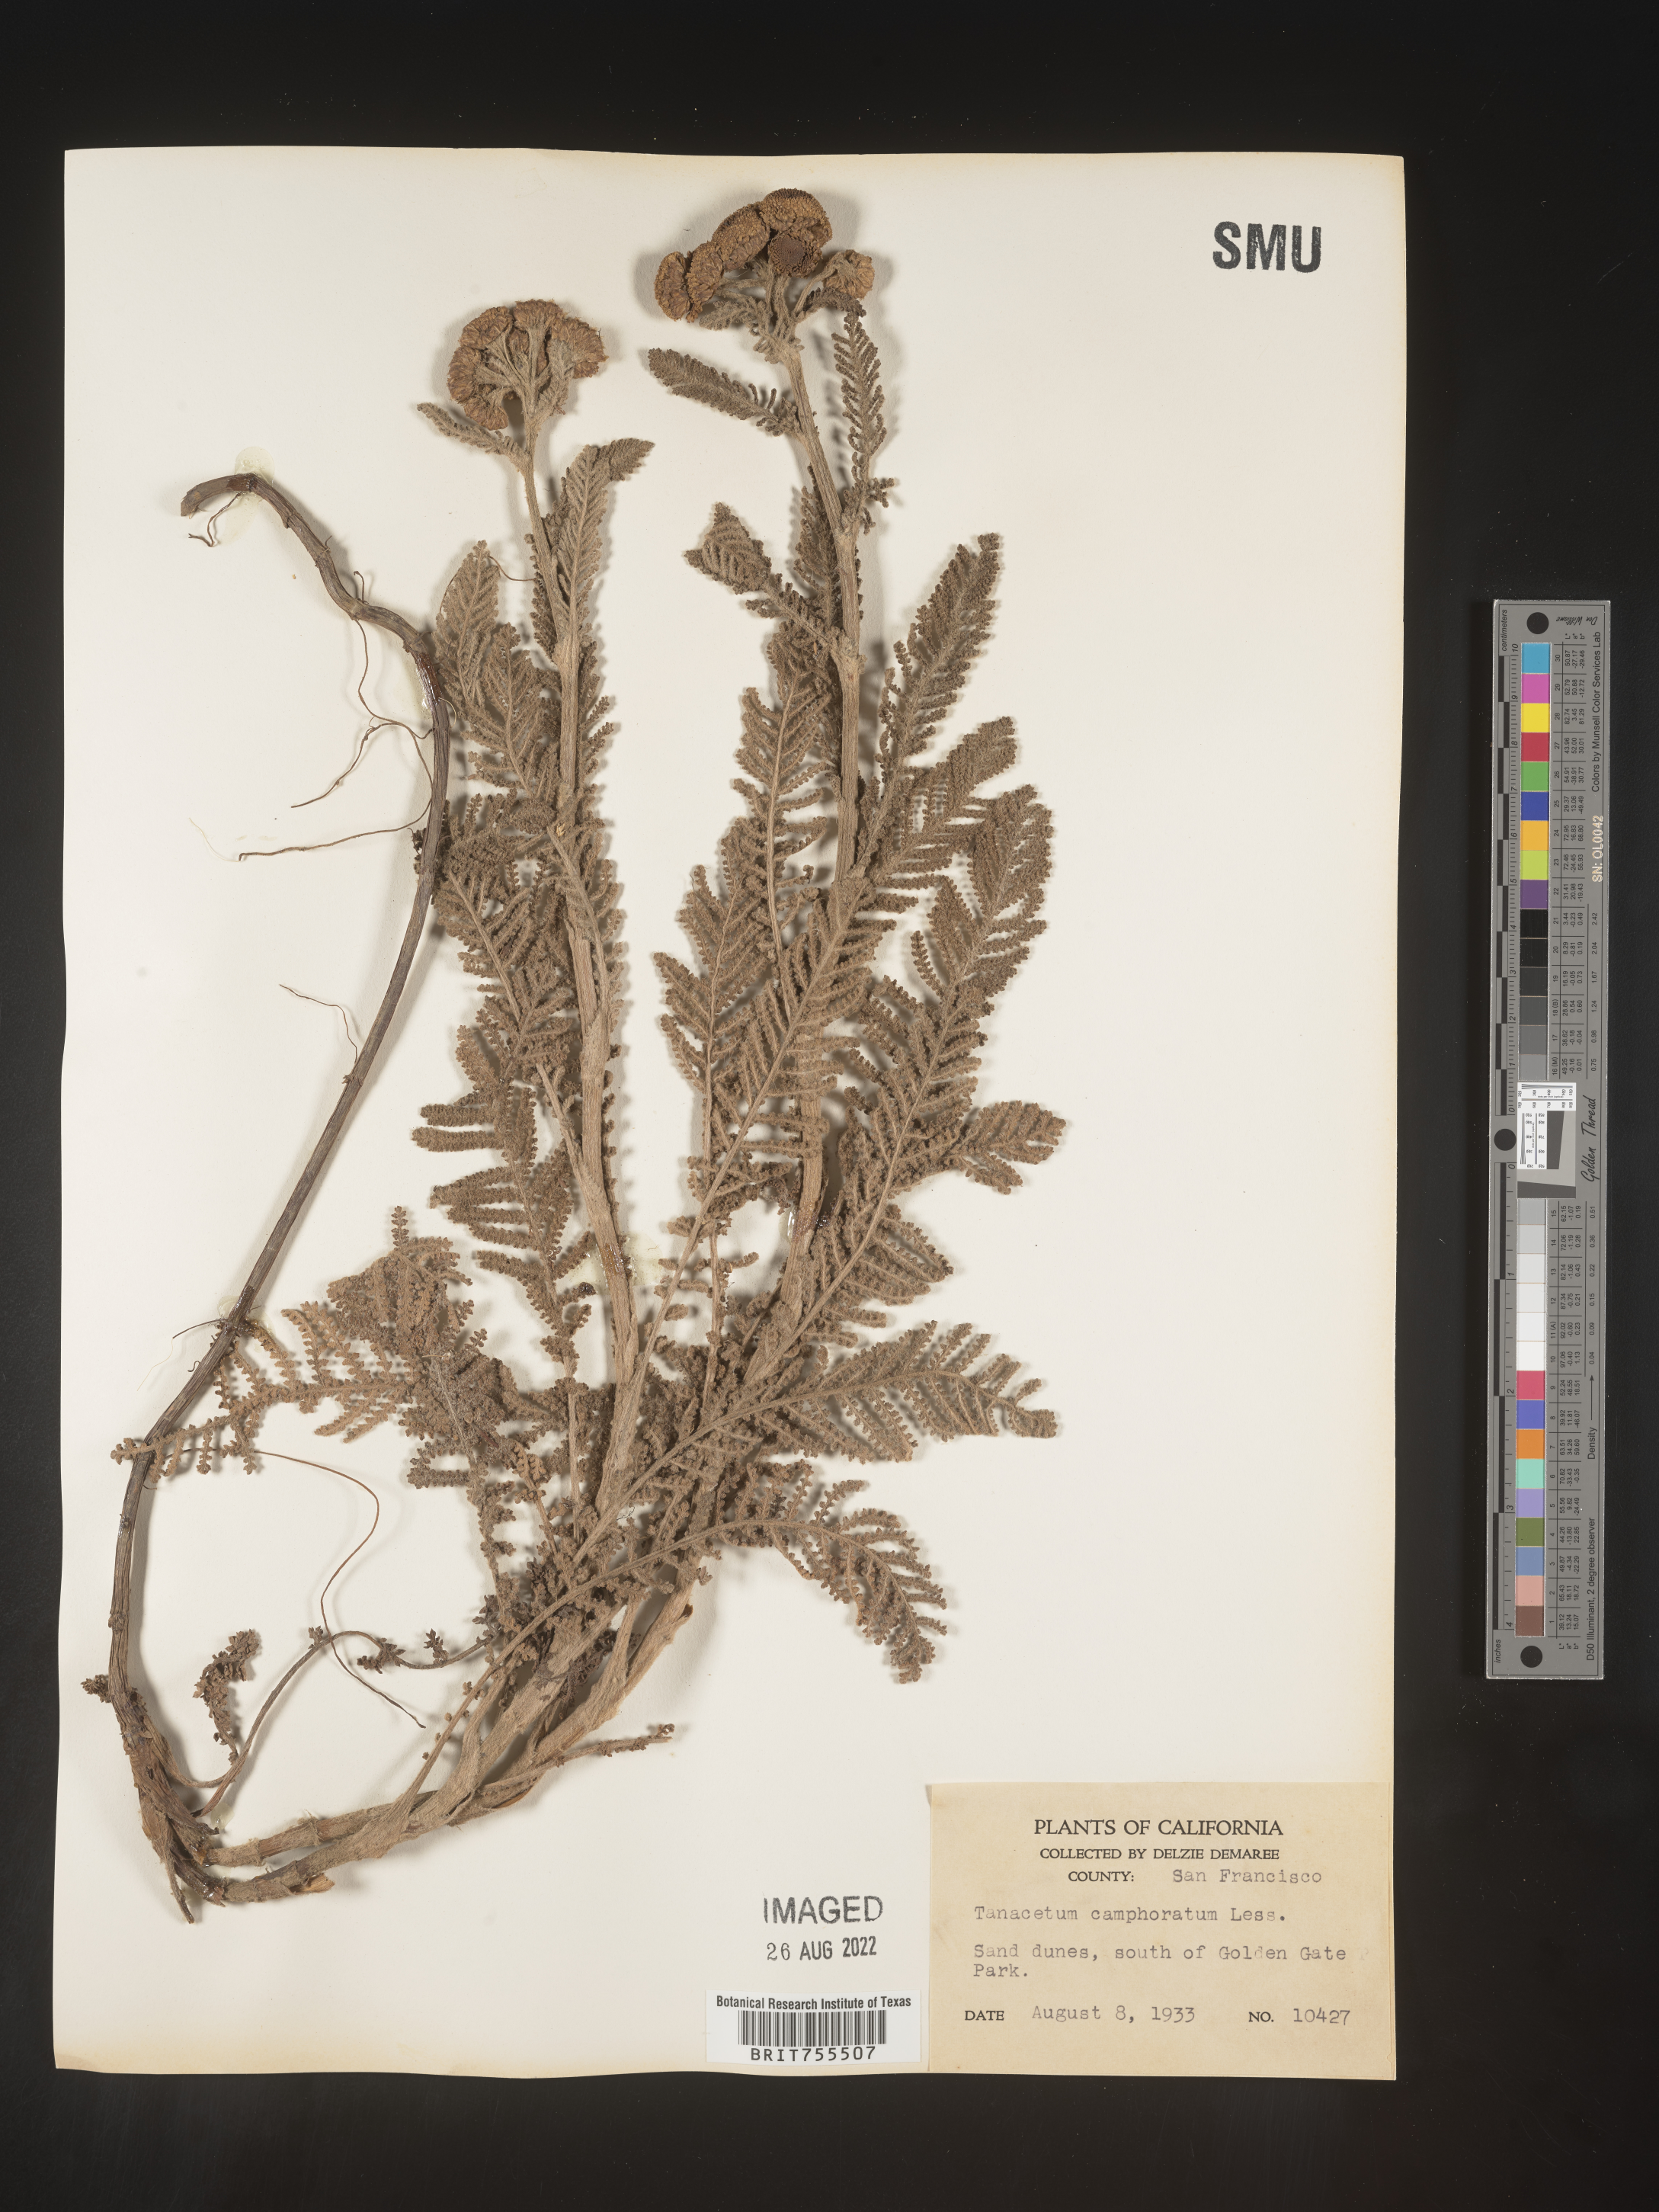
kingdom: Plantae
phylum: Tracheophyta
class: Magnoliopsida
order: Asterales
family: Asteraceae
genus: Tanacetum
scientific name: Tanacetum bipinnatum
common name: Dwarf tansy
